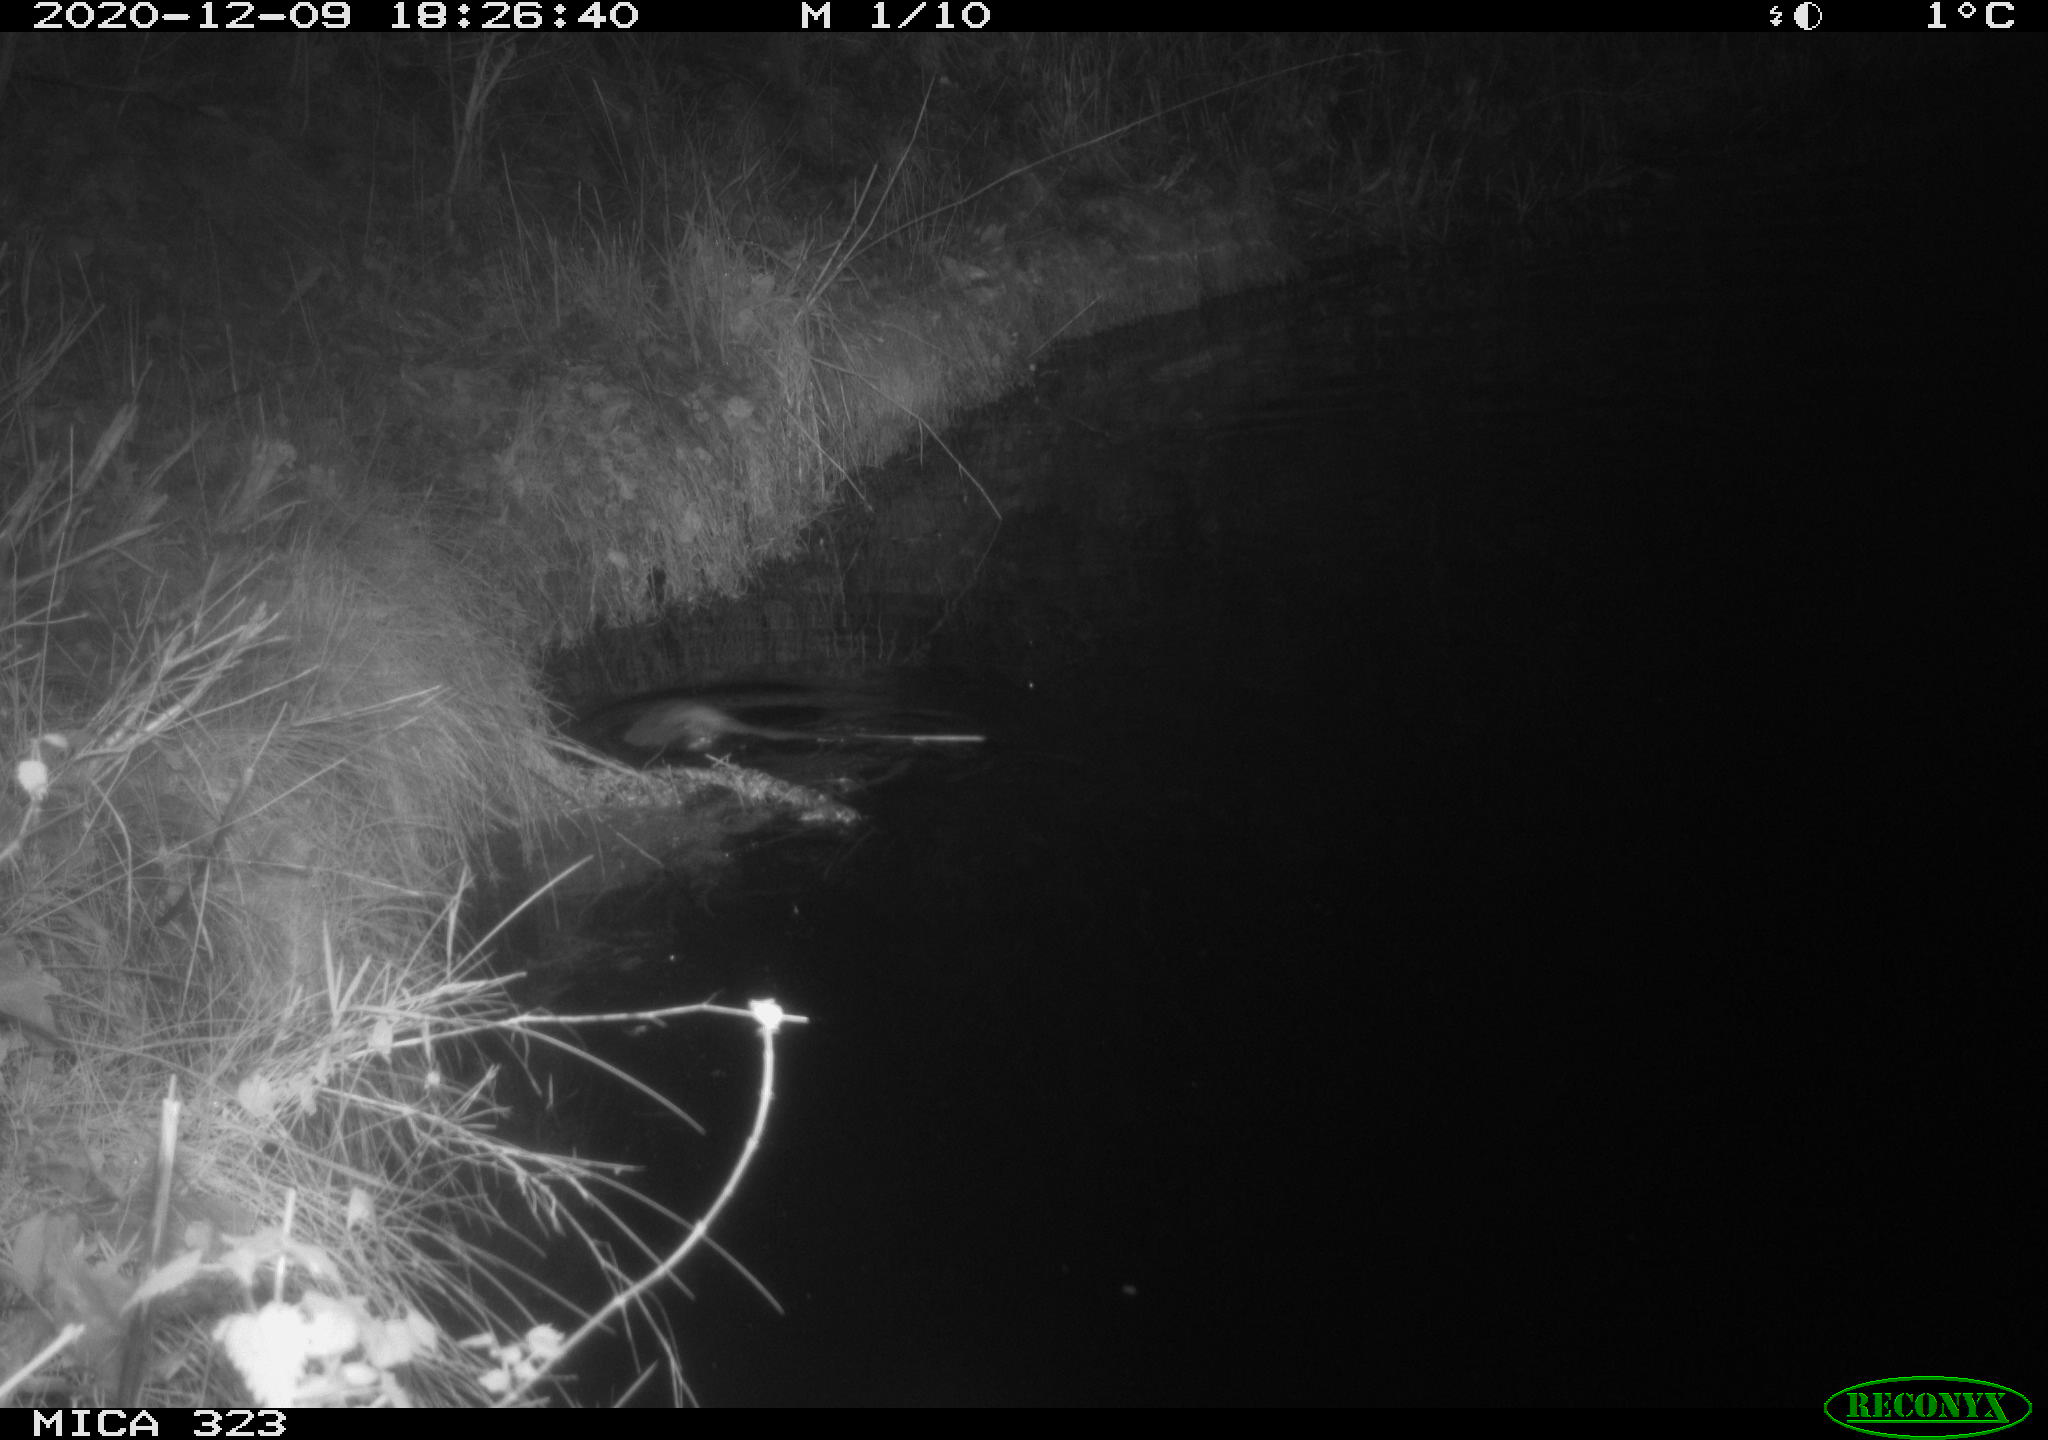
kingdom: Animalia
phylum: Chordata
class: Mammalia
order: Rodentia
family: Myocastoridae
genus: Myocastor
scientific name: Myocastor coypus
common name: Coypu
